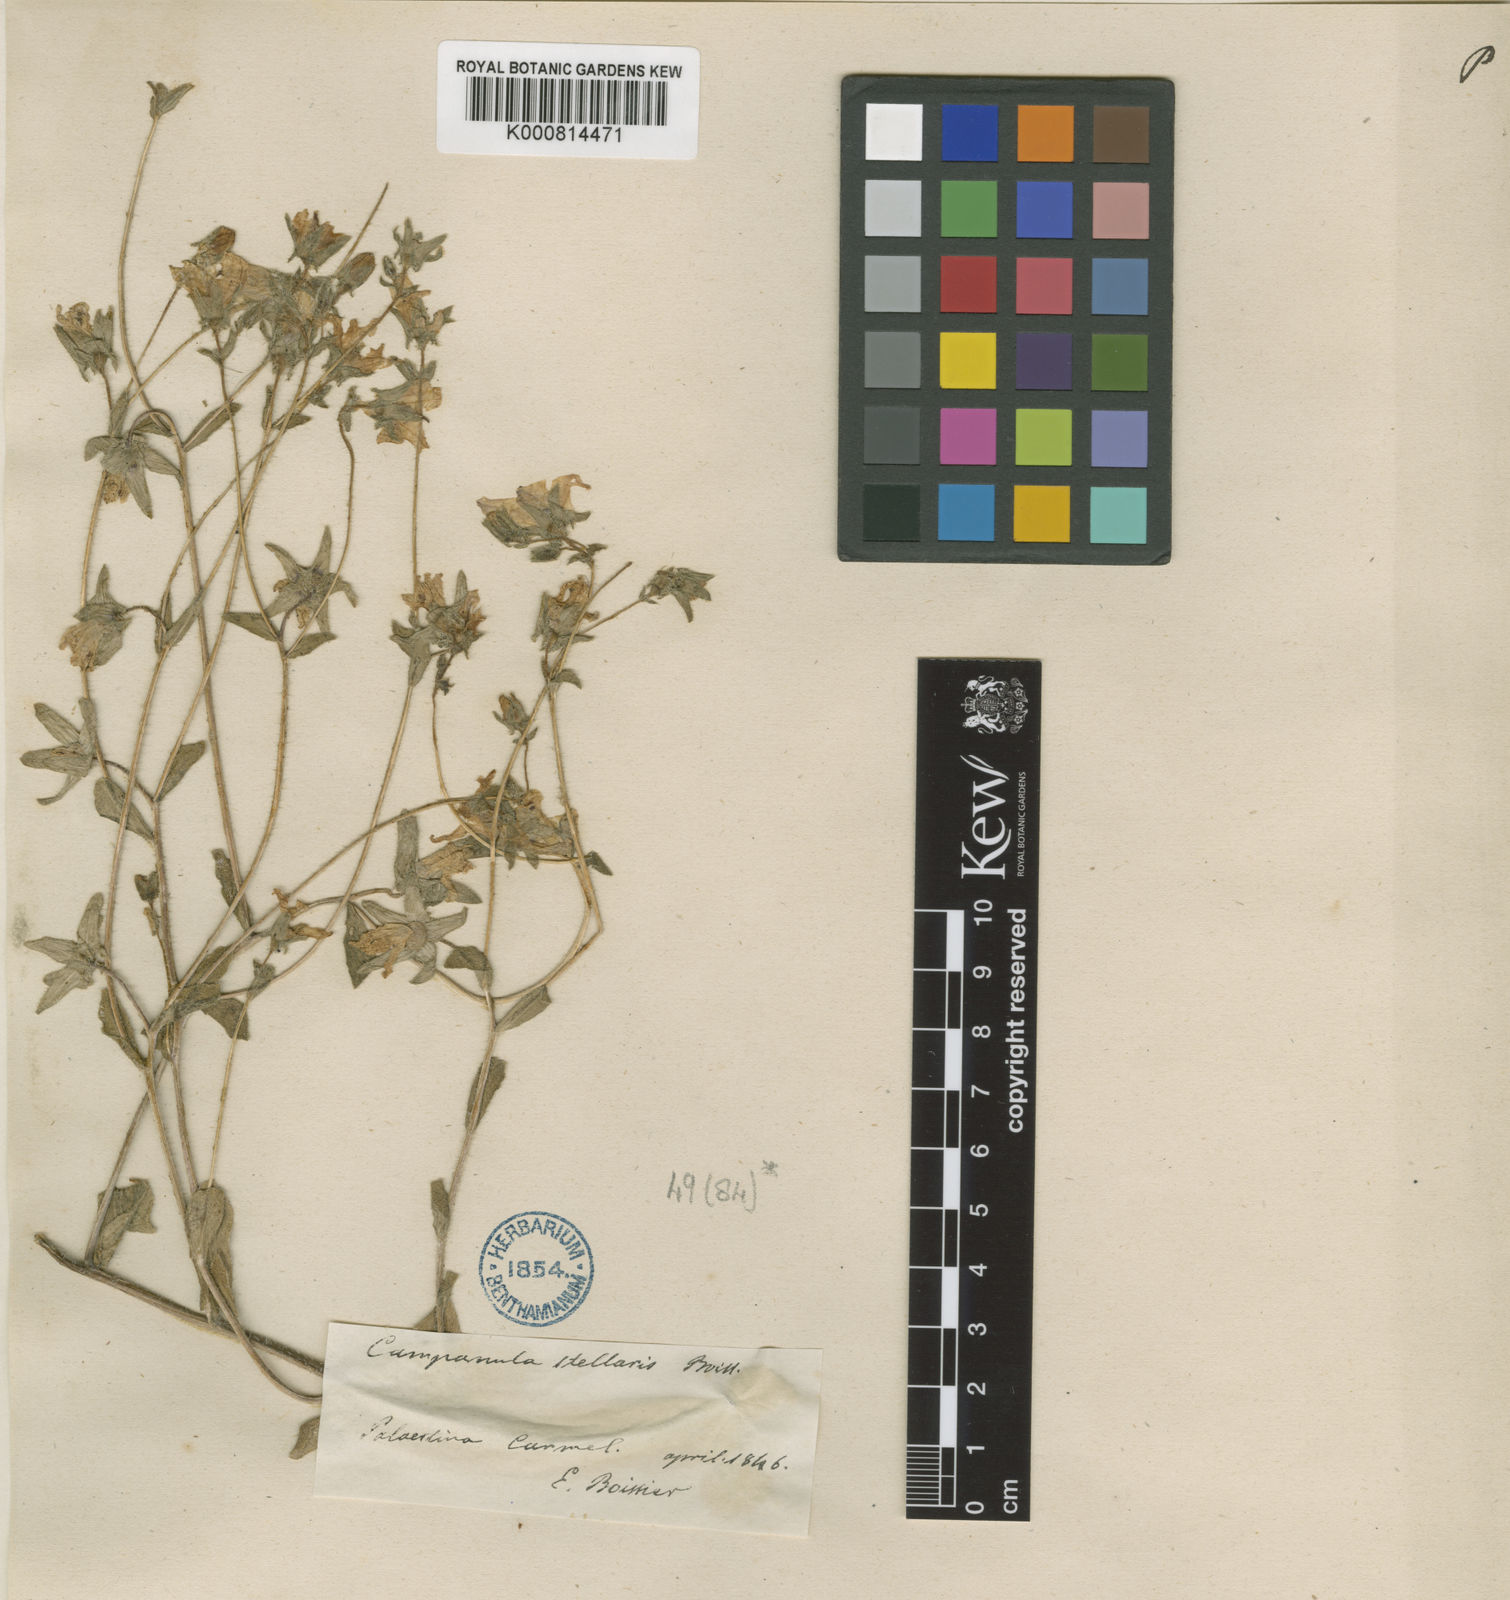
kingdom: Plantae
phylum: Tracheophyta
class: Magnoliopsida
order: Asterales
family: Campanulaceae
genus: Campanula
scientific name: Campanula stellaris
